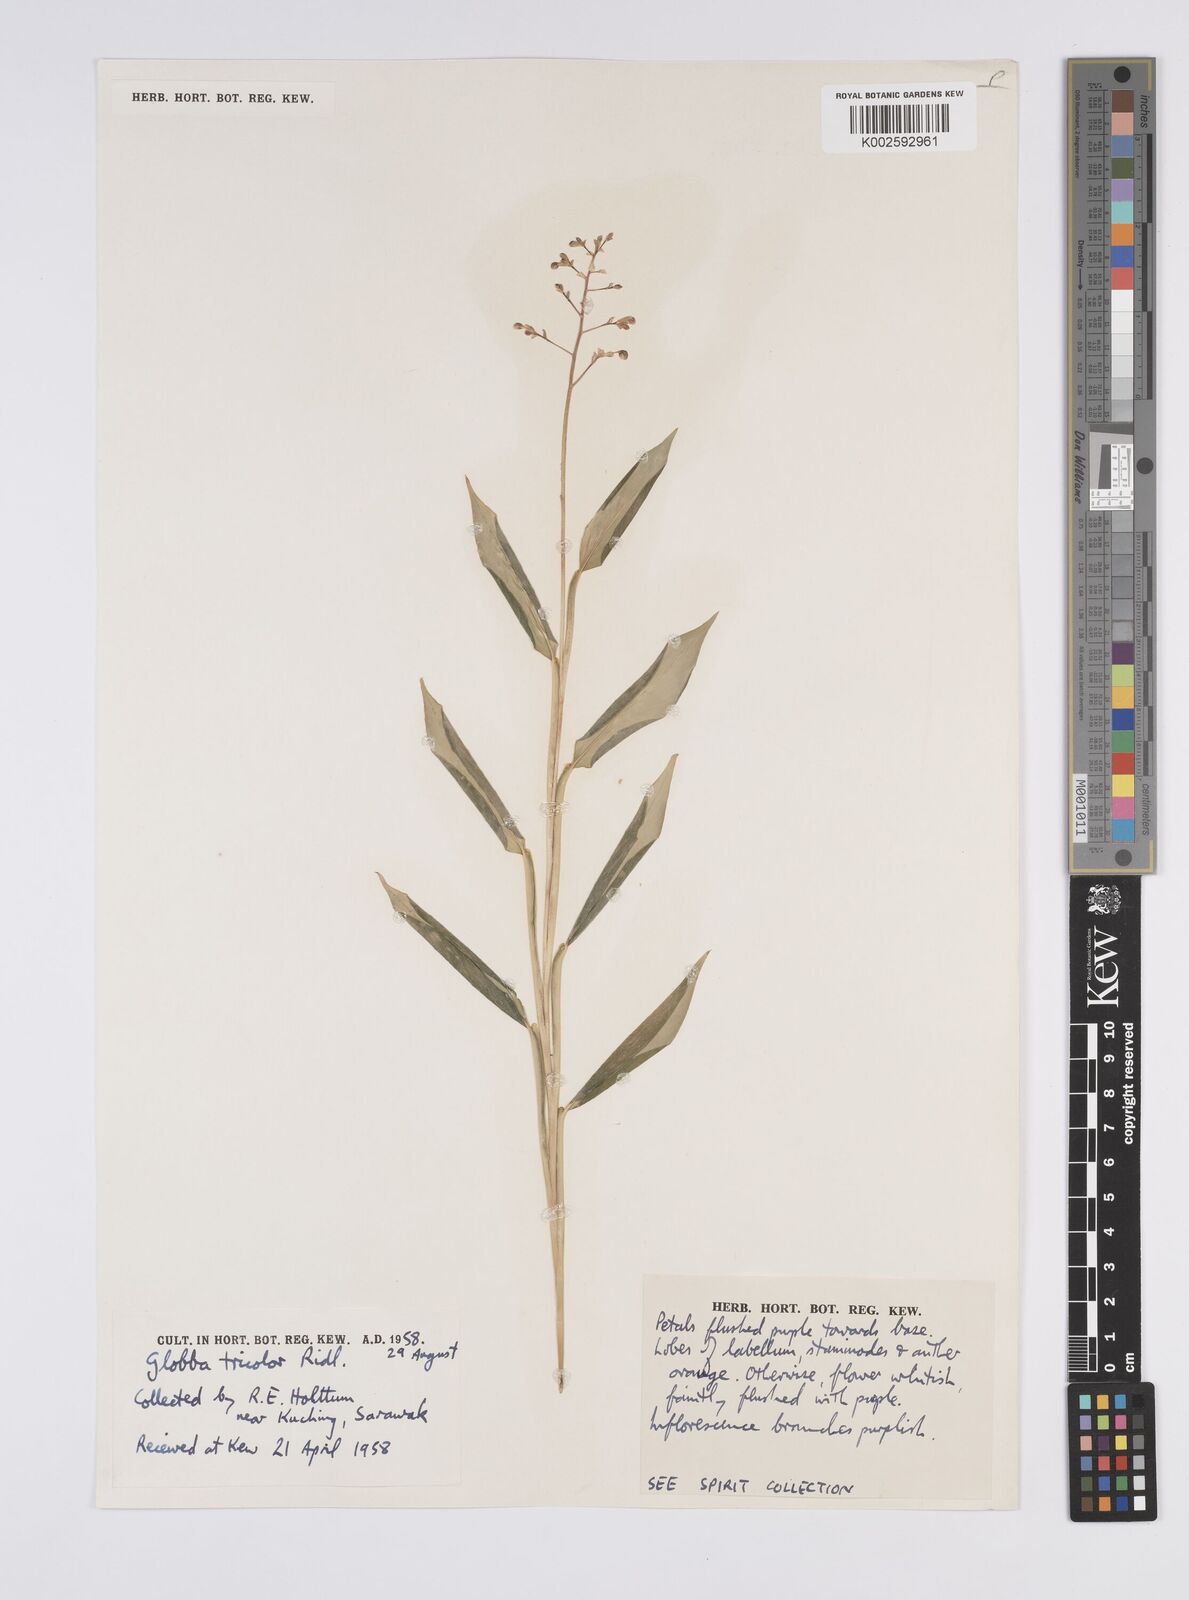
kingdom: Plantae
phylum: Tracheophyta
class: Liliopsida
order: Zingiberales
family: Zingiberaceae
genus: Globba
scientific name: Globba tricolor
